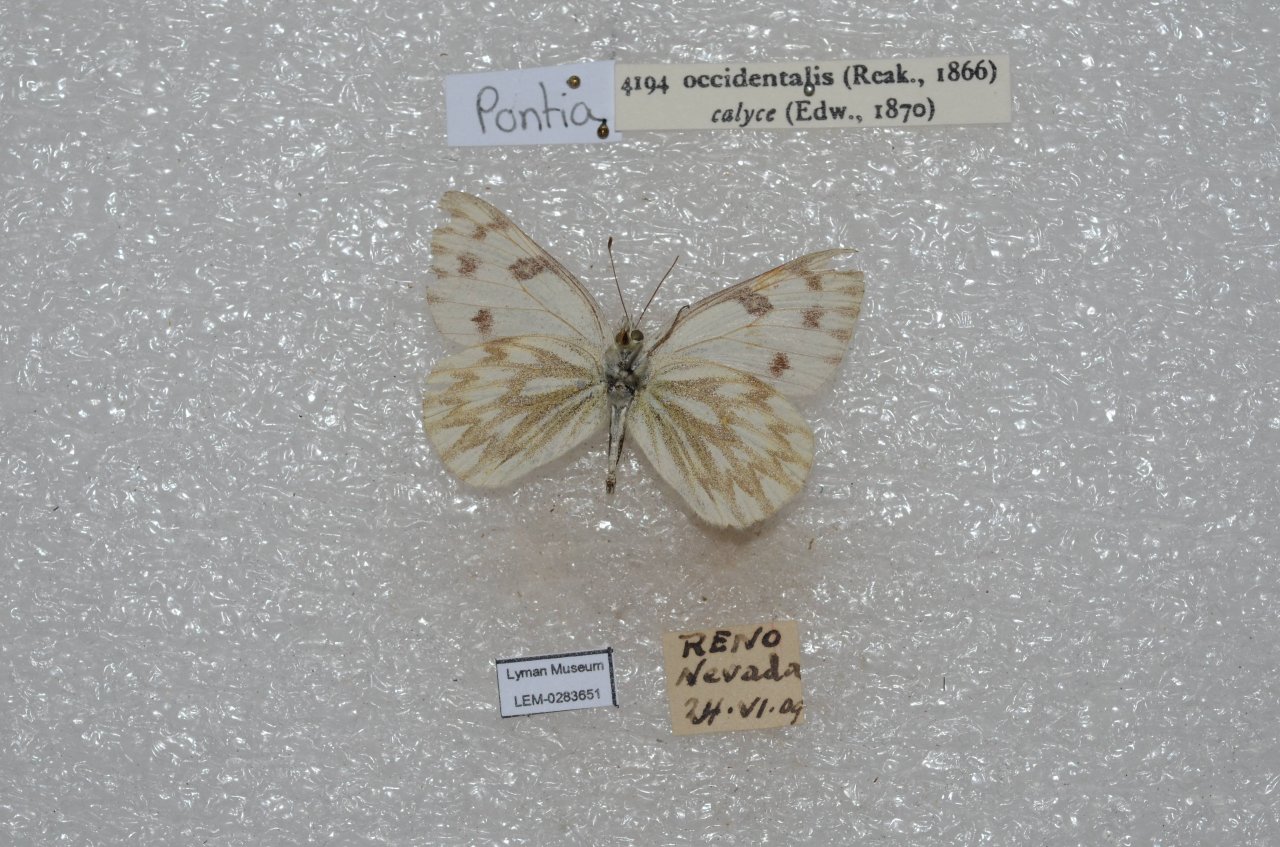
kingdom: Animalia
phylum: Arthropoda
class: Insecta
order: Lepidoptera
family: Pieridae
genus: Pontia
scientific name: Pontia occidentalis
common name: Western White
